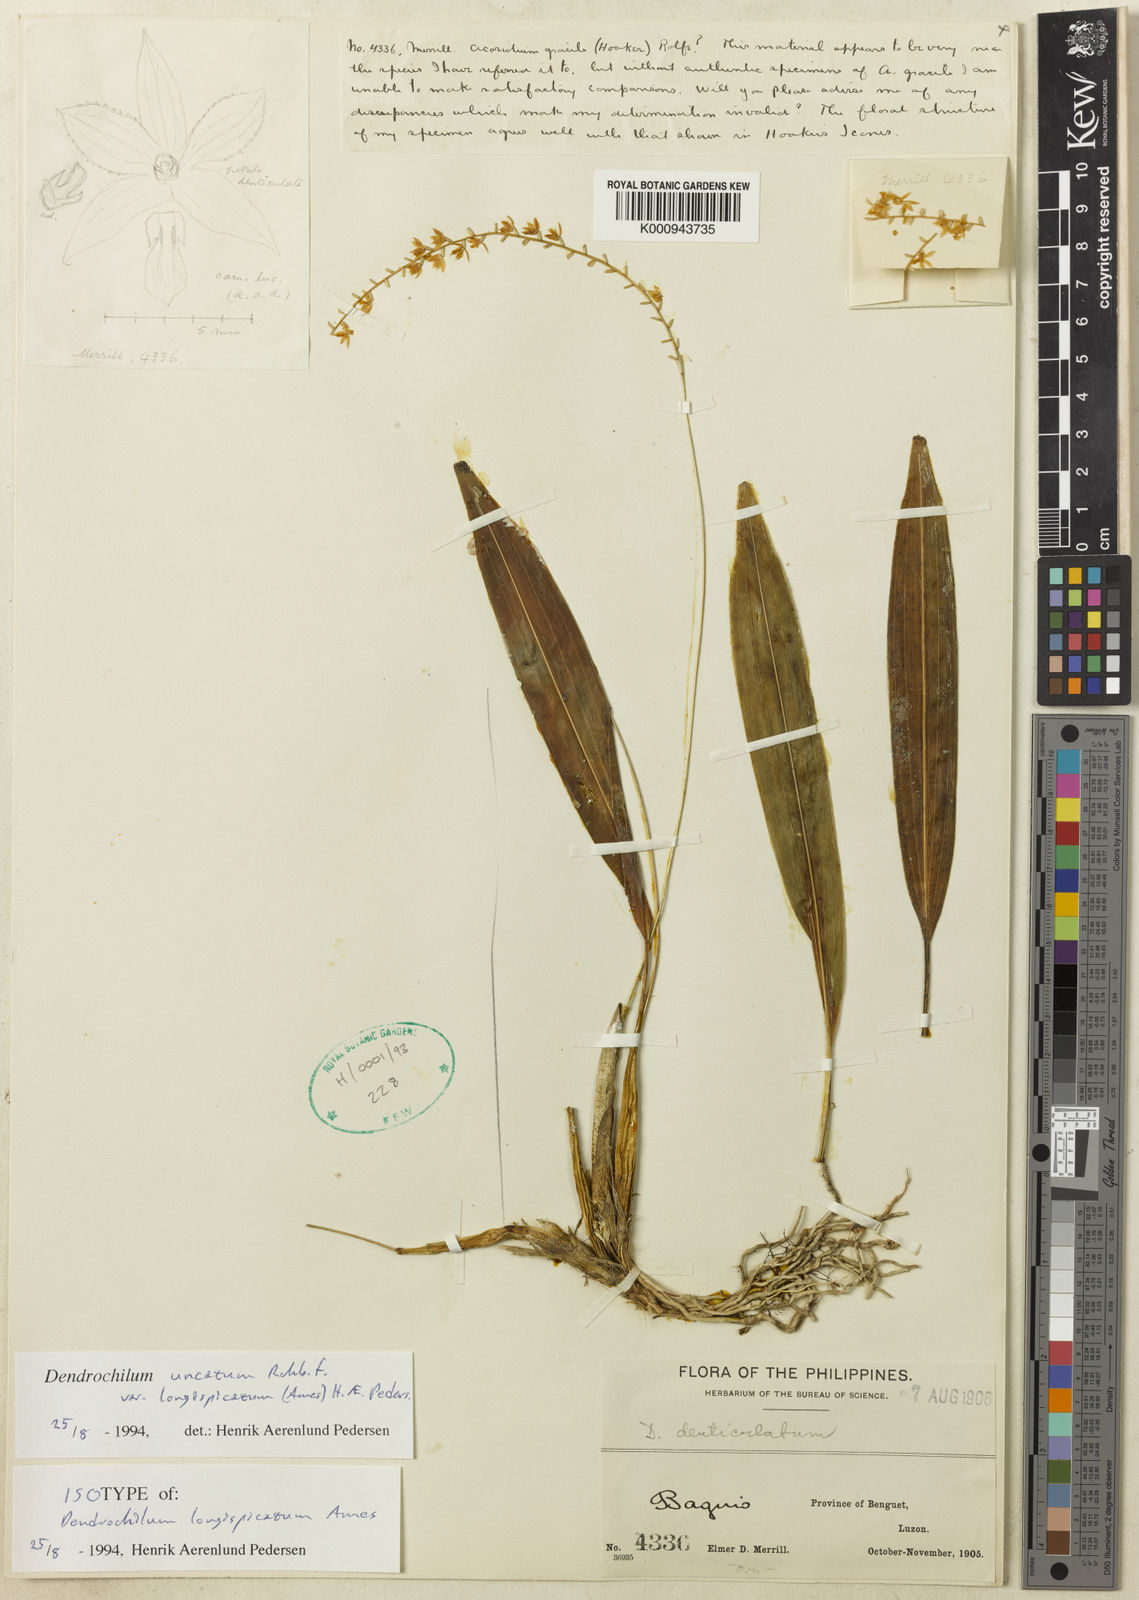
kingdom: Plantae
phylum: Tracheophyta
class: Liliopsida
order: Asparagales
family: Orchidaceae
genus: Coelogyne
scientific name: Coelogyne uncata
